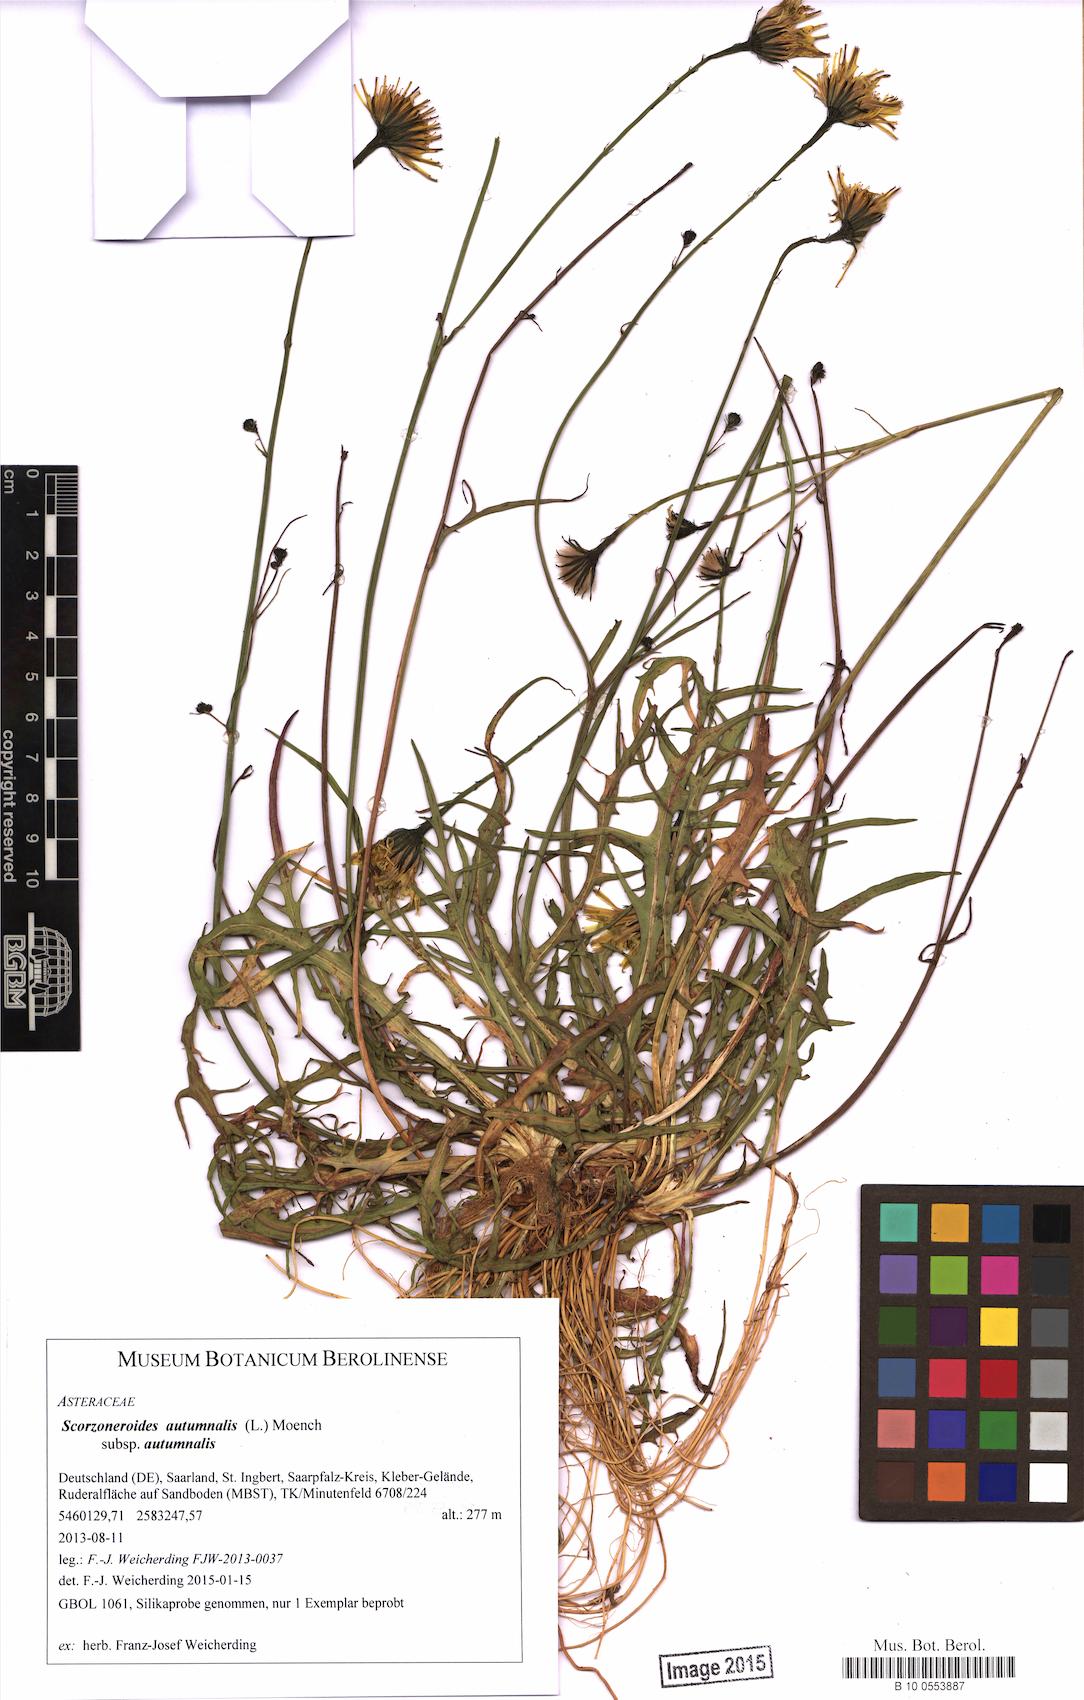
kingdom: Plantae
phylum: Tracheophyta
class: Magnoliopsida
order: Asterales
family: Asteraceae
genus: Scorzoneroides
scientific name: Scorzoneroides autumnalis
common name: Autumn hawkbit
